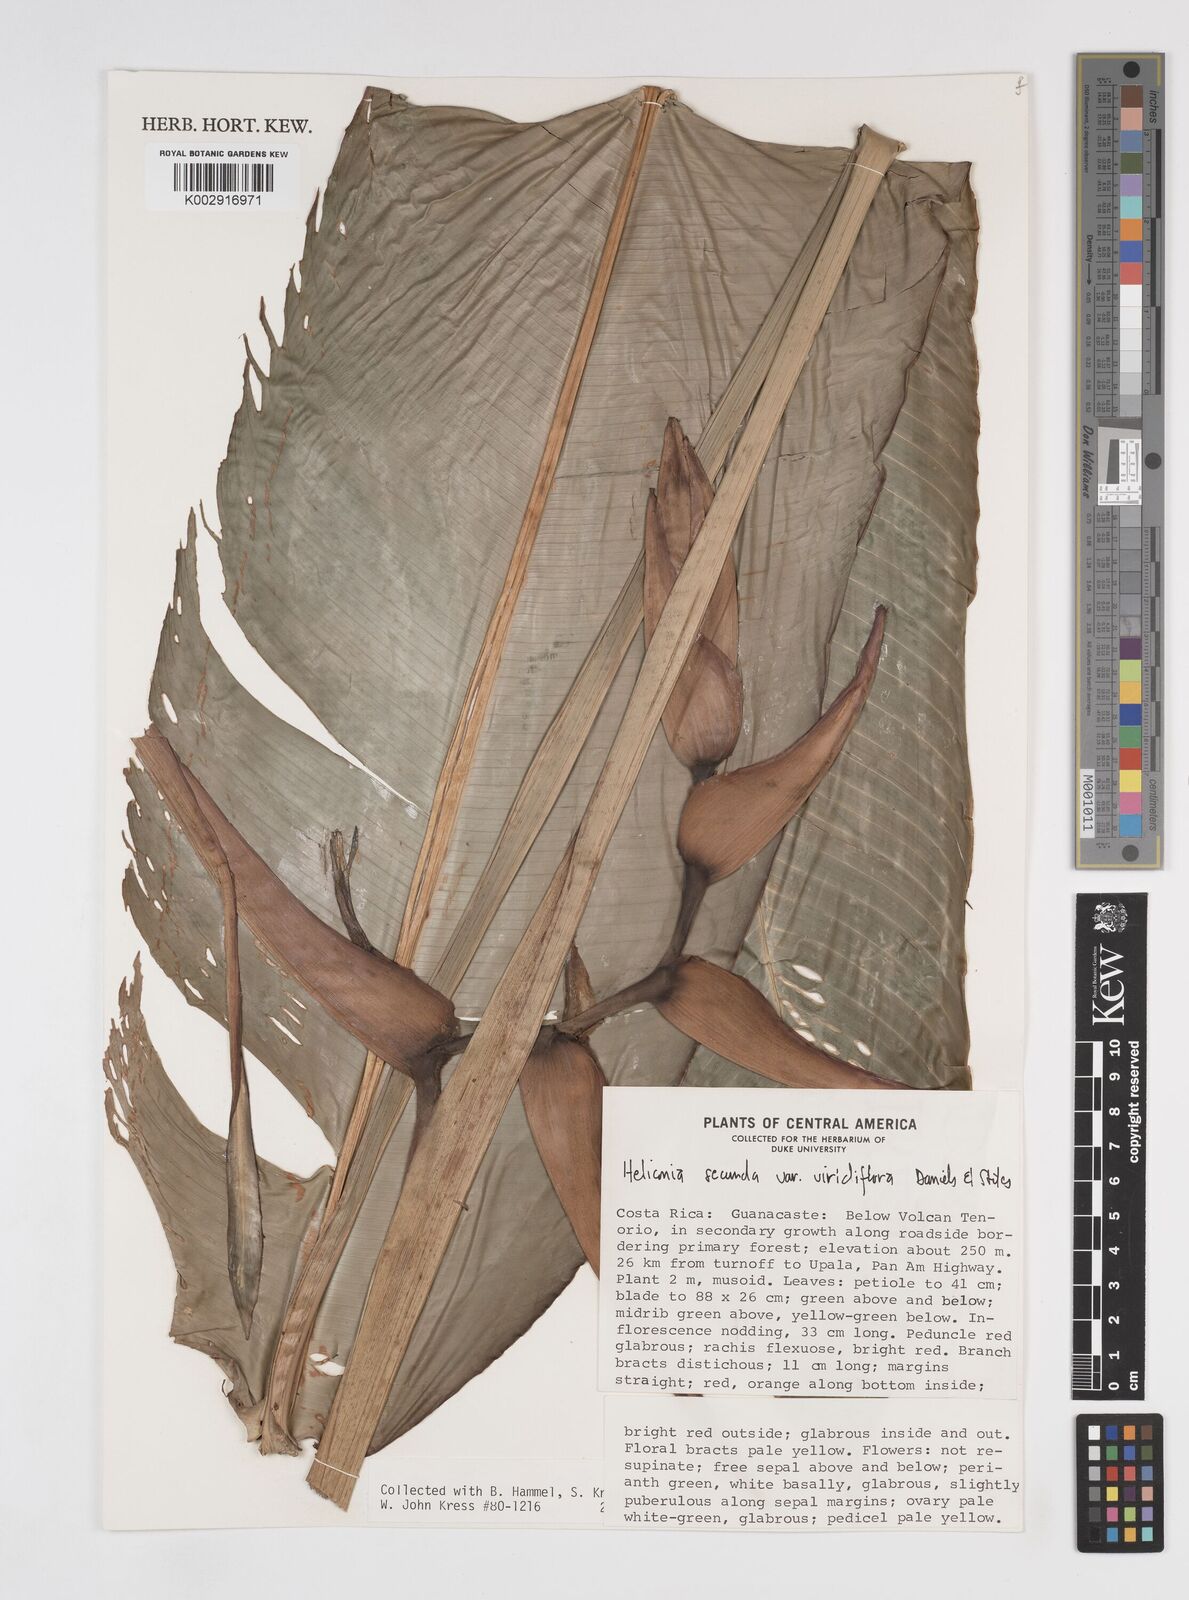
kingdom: Plantae
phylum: Tracheophyta
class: Liliopsida
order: Zingiberales
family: Heliconiaceae
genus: Heliconia
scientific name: Heliconia secunda
